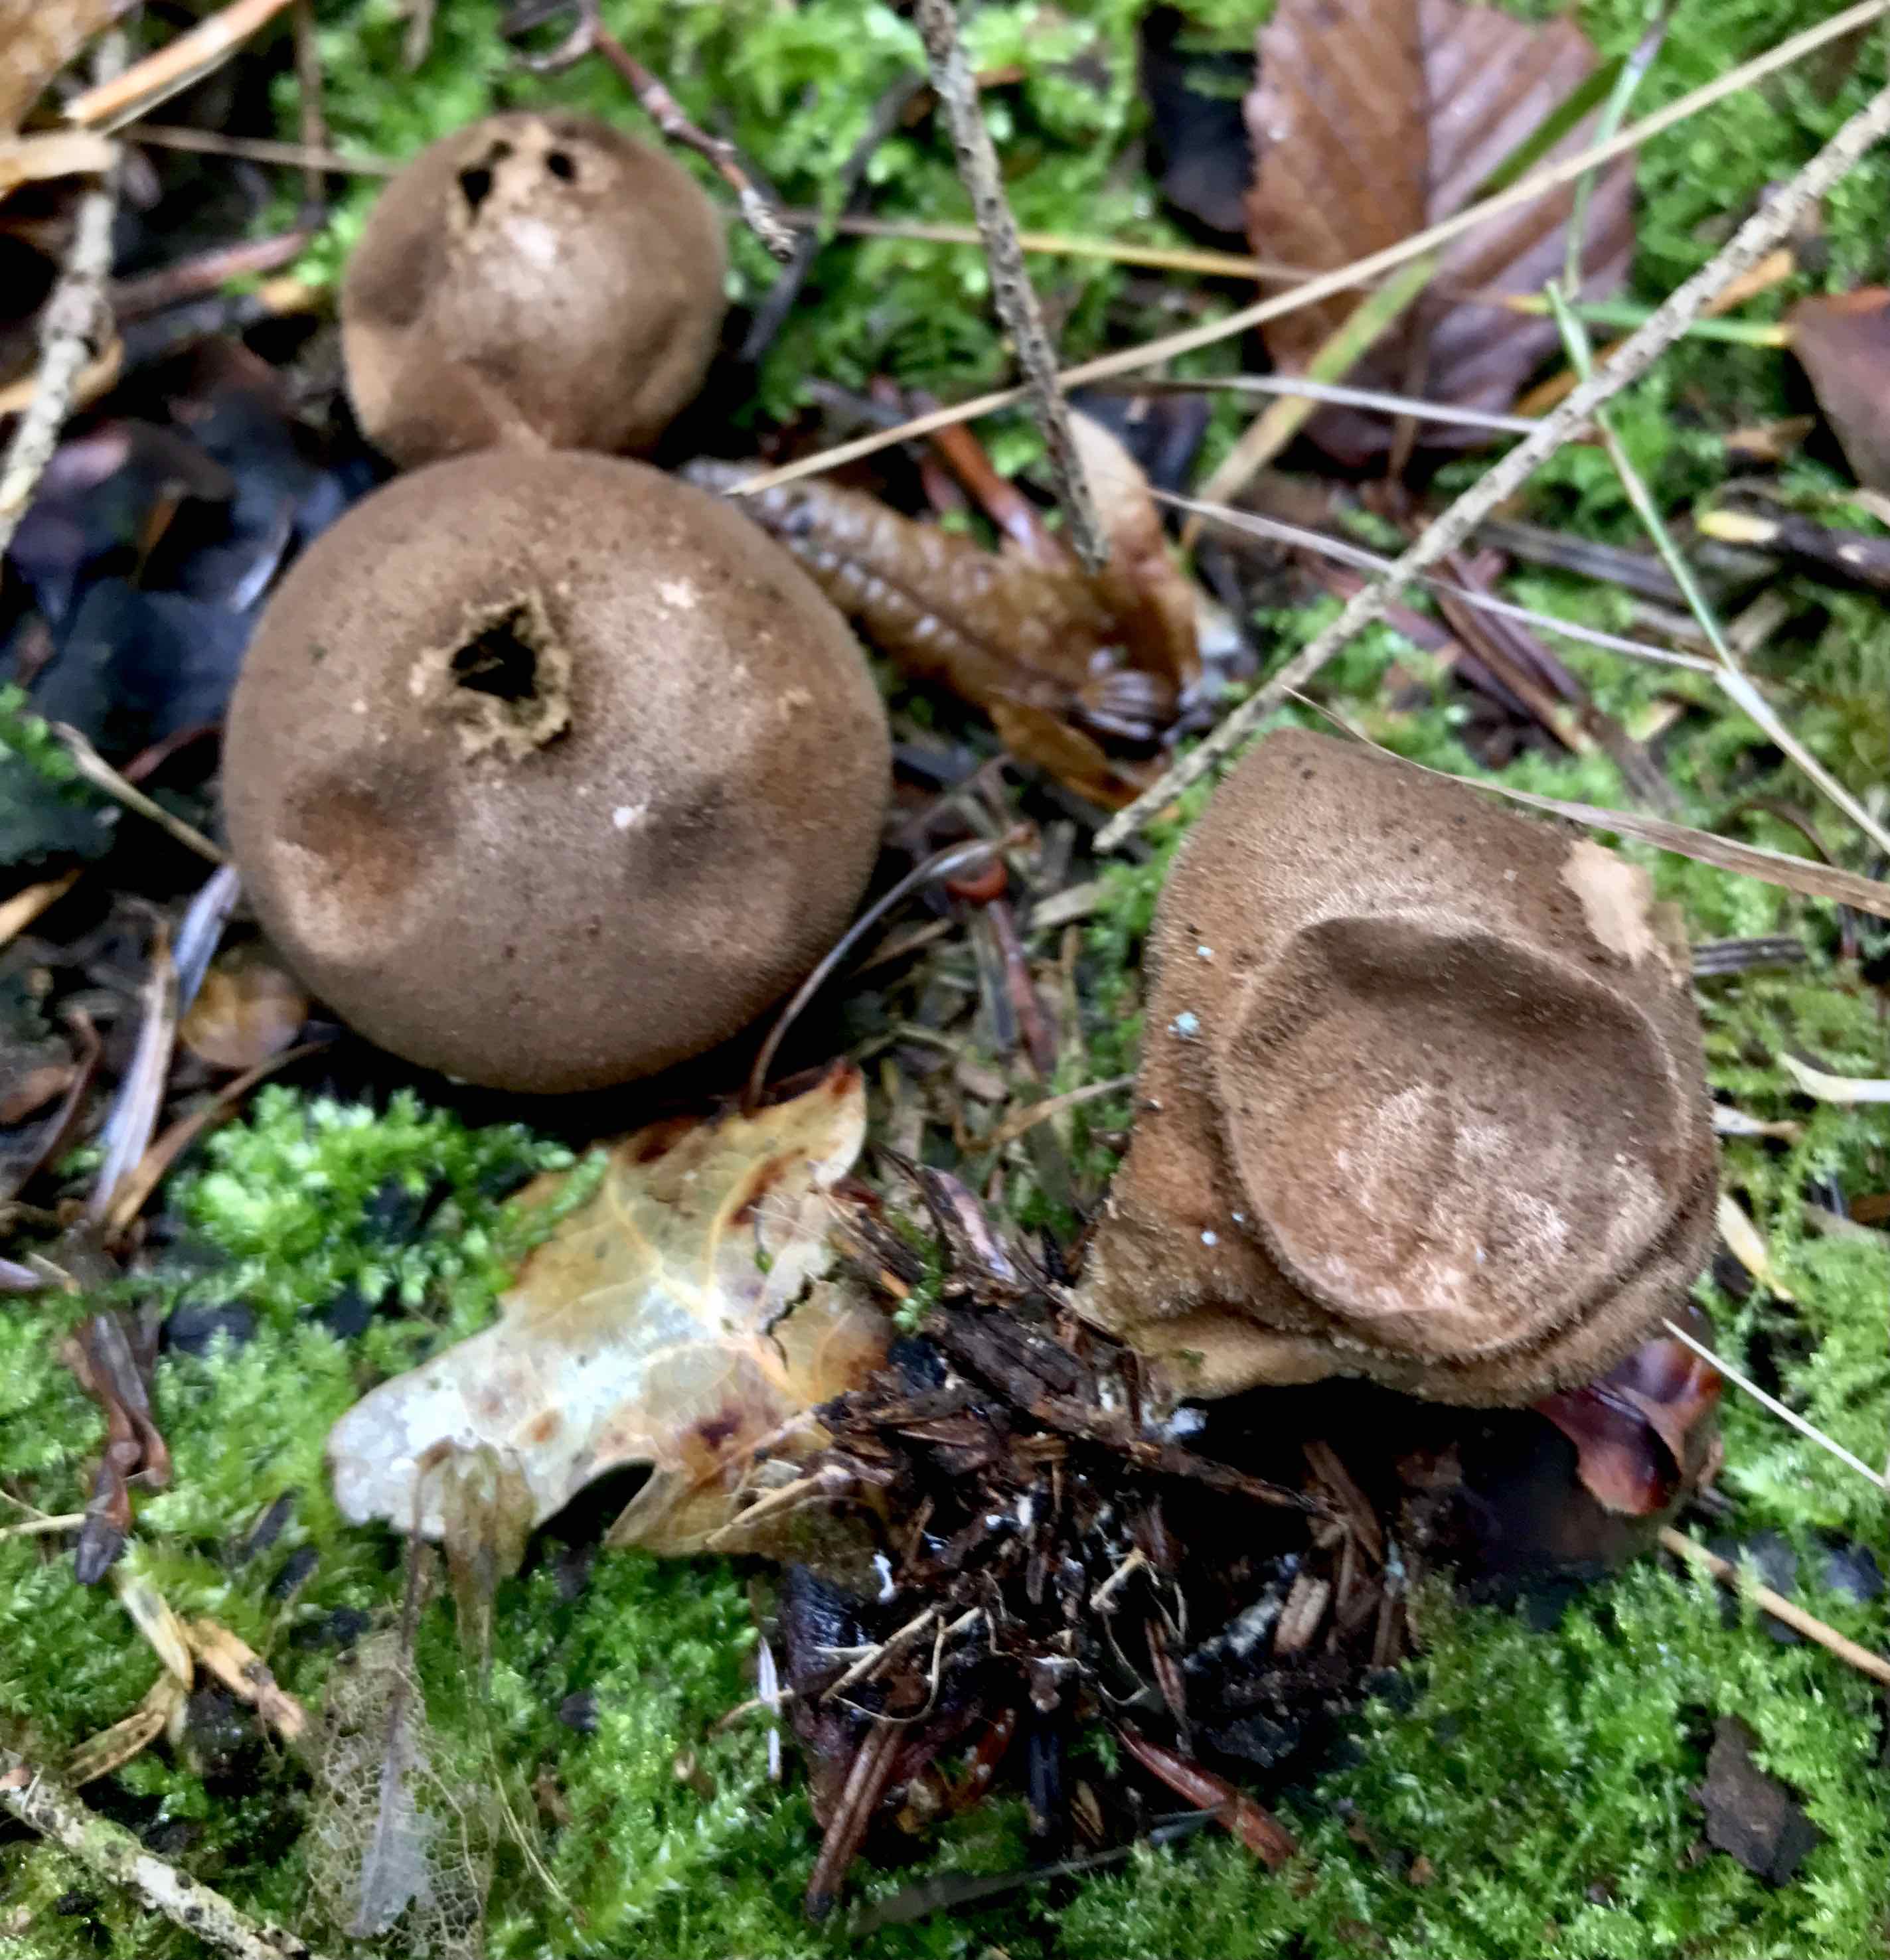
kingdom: Fungi
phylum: Basidiomycota
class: Agaricomycetes
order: Agaricales
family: Lycoperdaceae
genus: Lycoperdon
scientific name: Lycoperdon umbrinum
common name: umbrabrun støvbold
